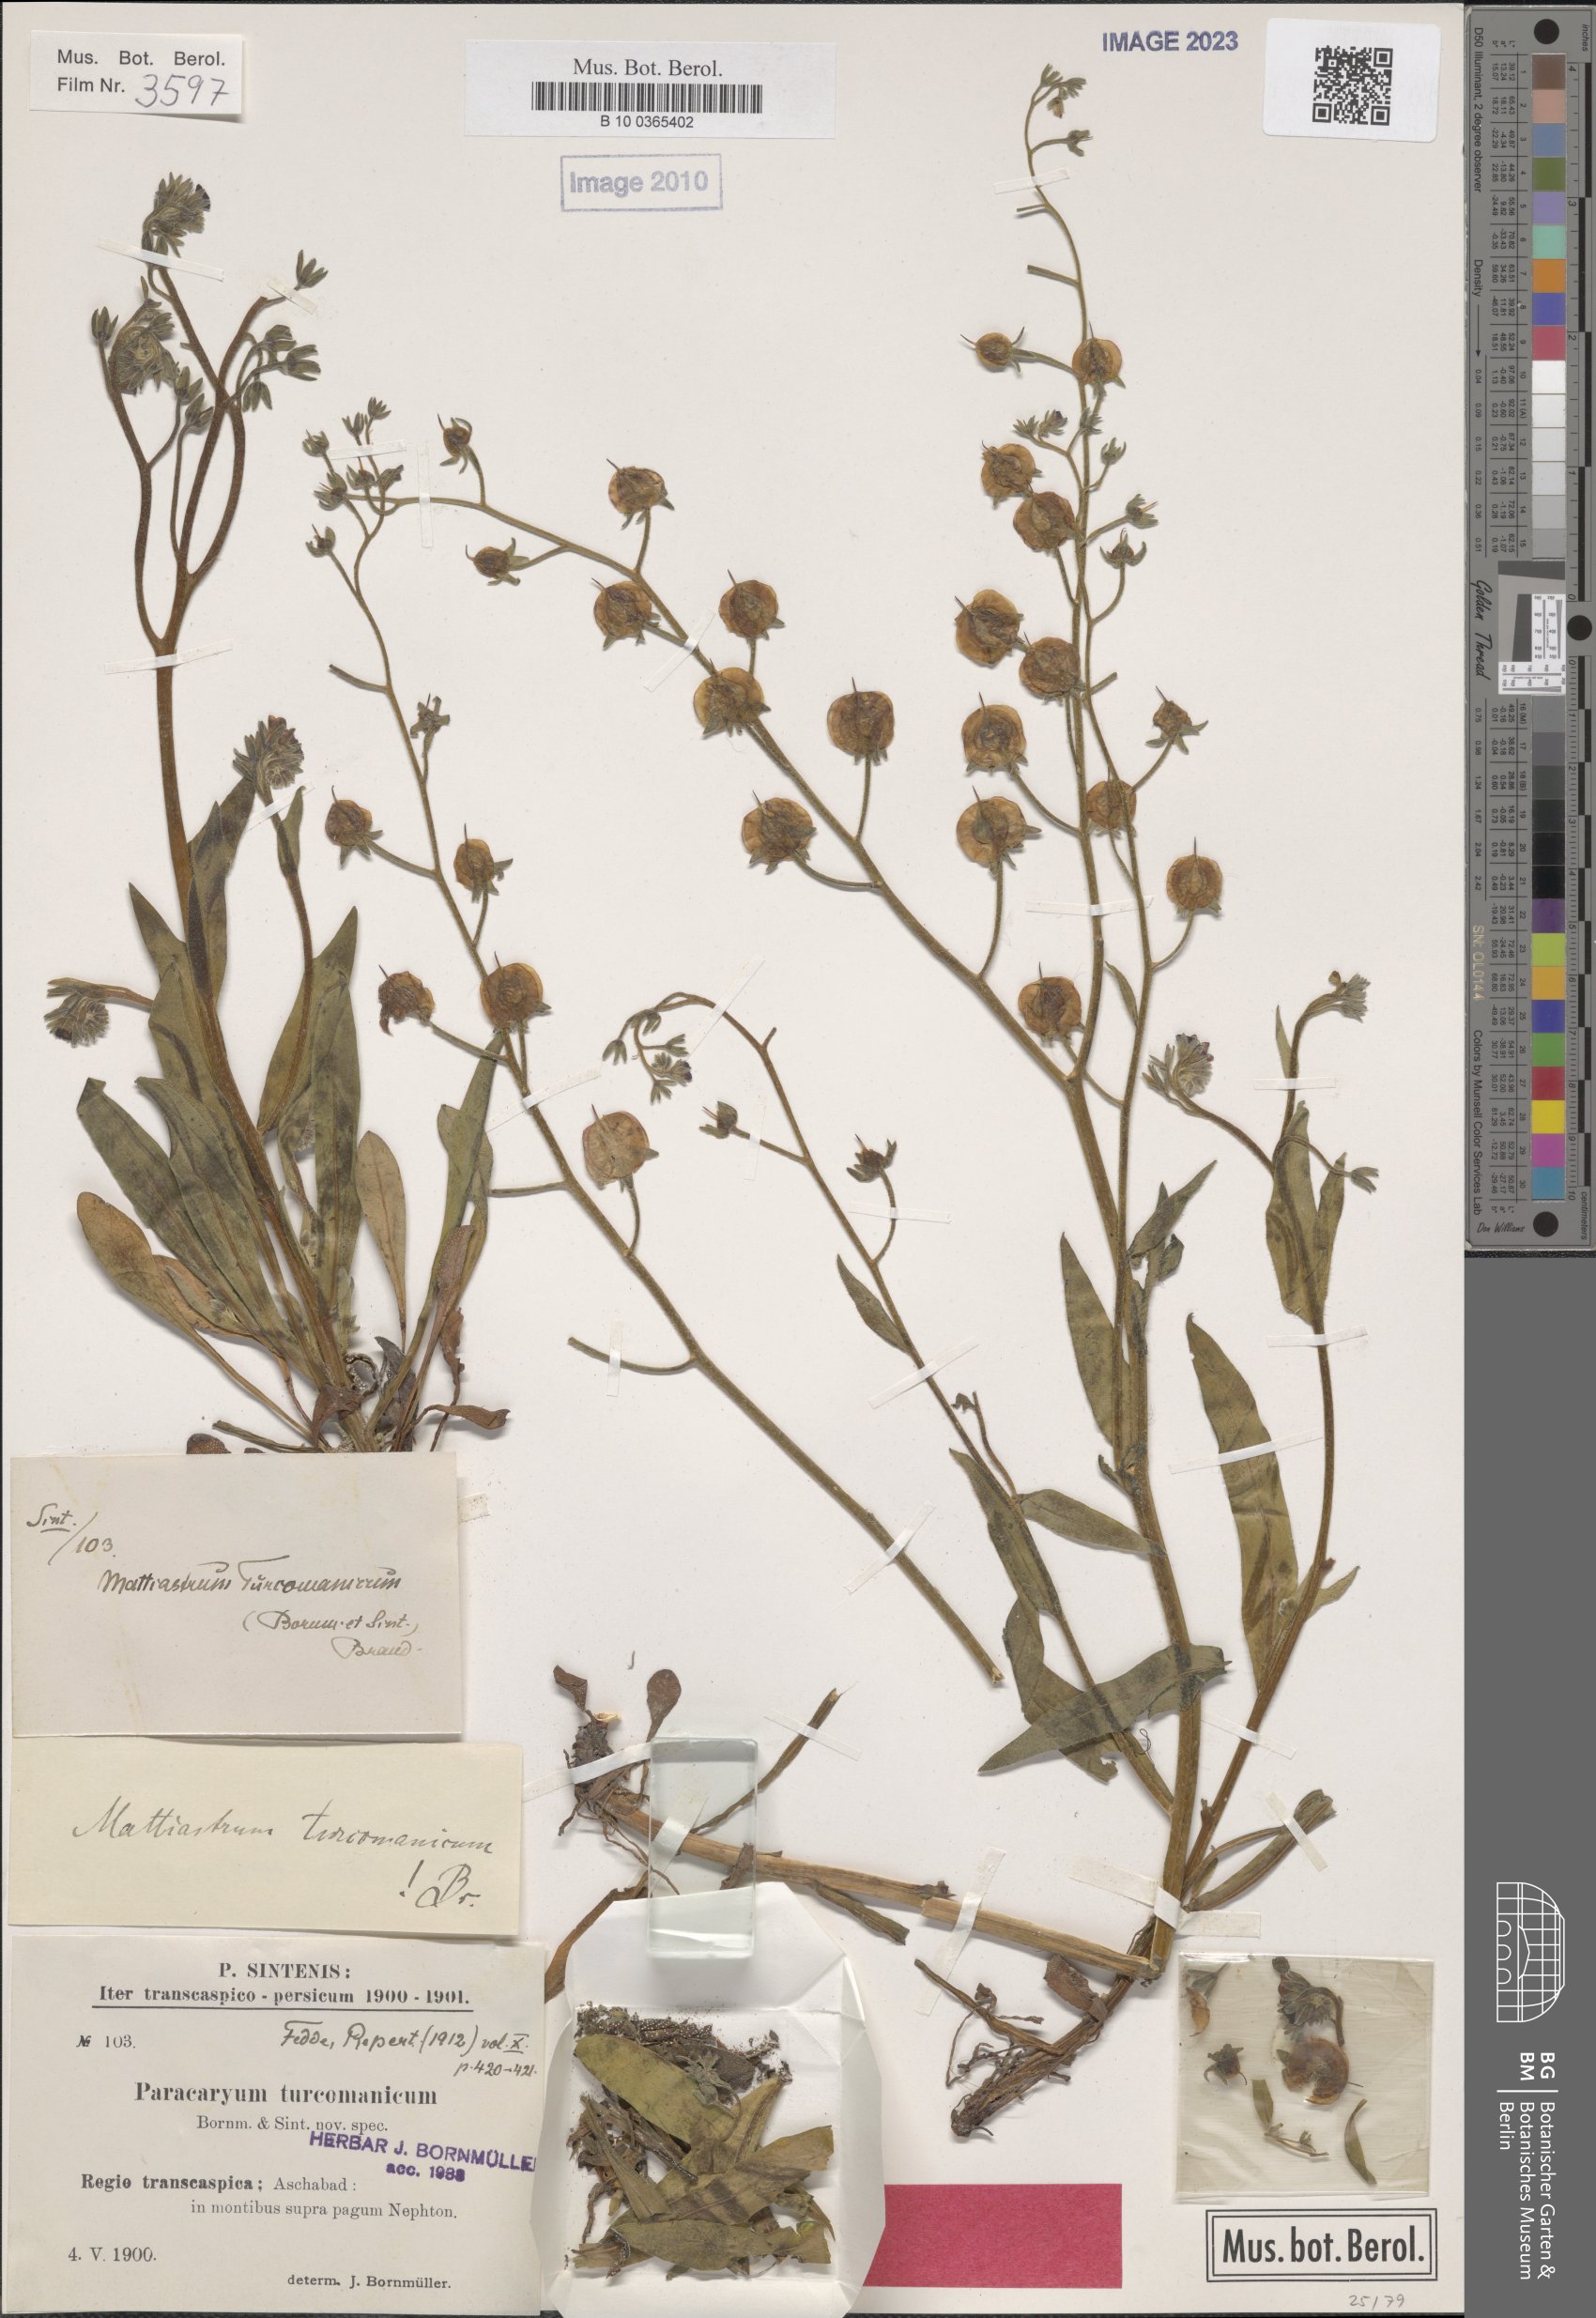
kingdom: Plantae
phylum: Tracheophyta
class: Magnoliopsida
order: Boraginales
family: Boraginaceae
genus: Paracaryum
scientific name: Paracaryum turcomanicum
